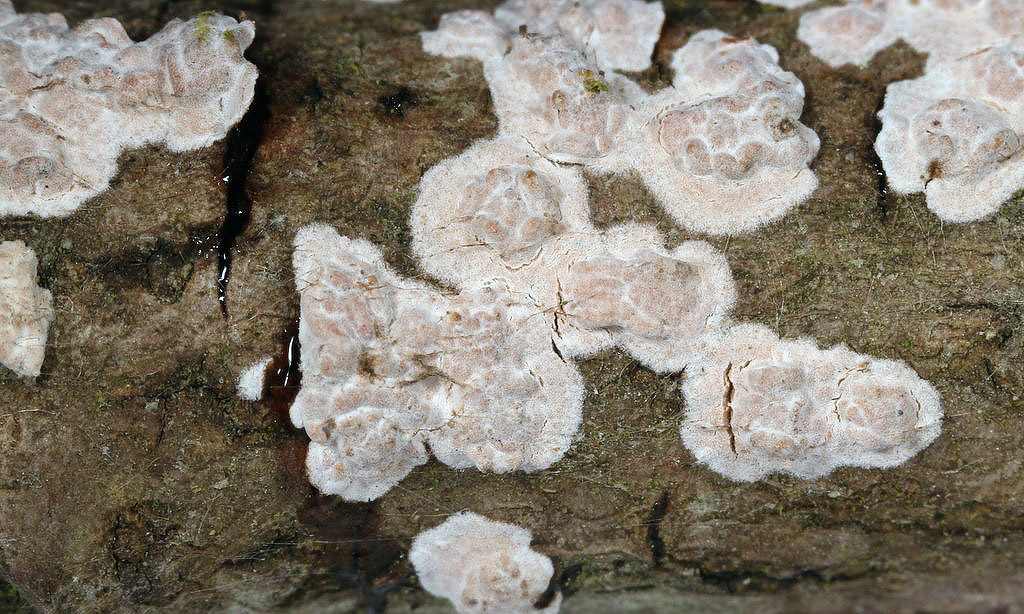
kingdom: Fungi
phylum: Basidiomycota
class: Agaricomycetes
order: Russulales
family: Peniophoraceae
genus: Peniophora
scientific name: Peniophora polygonia
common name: polygon-voksskind
